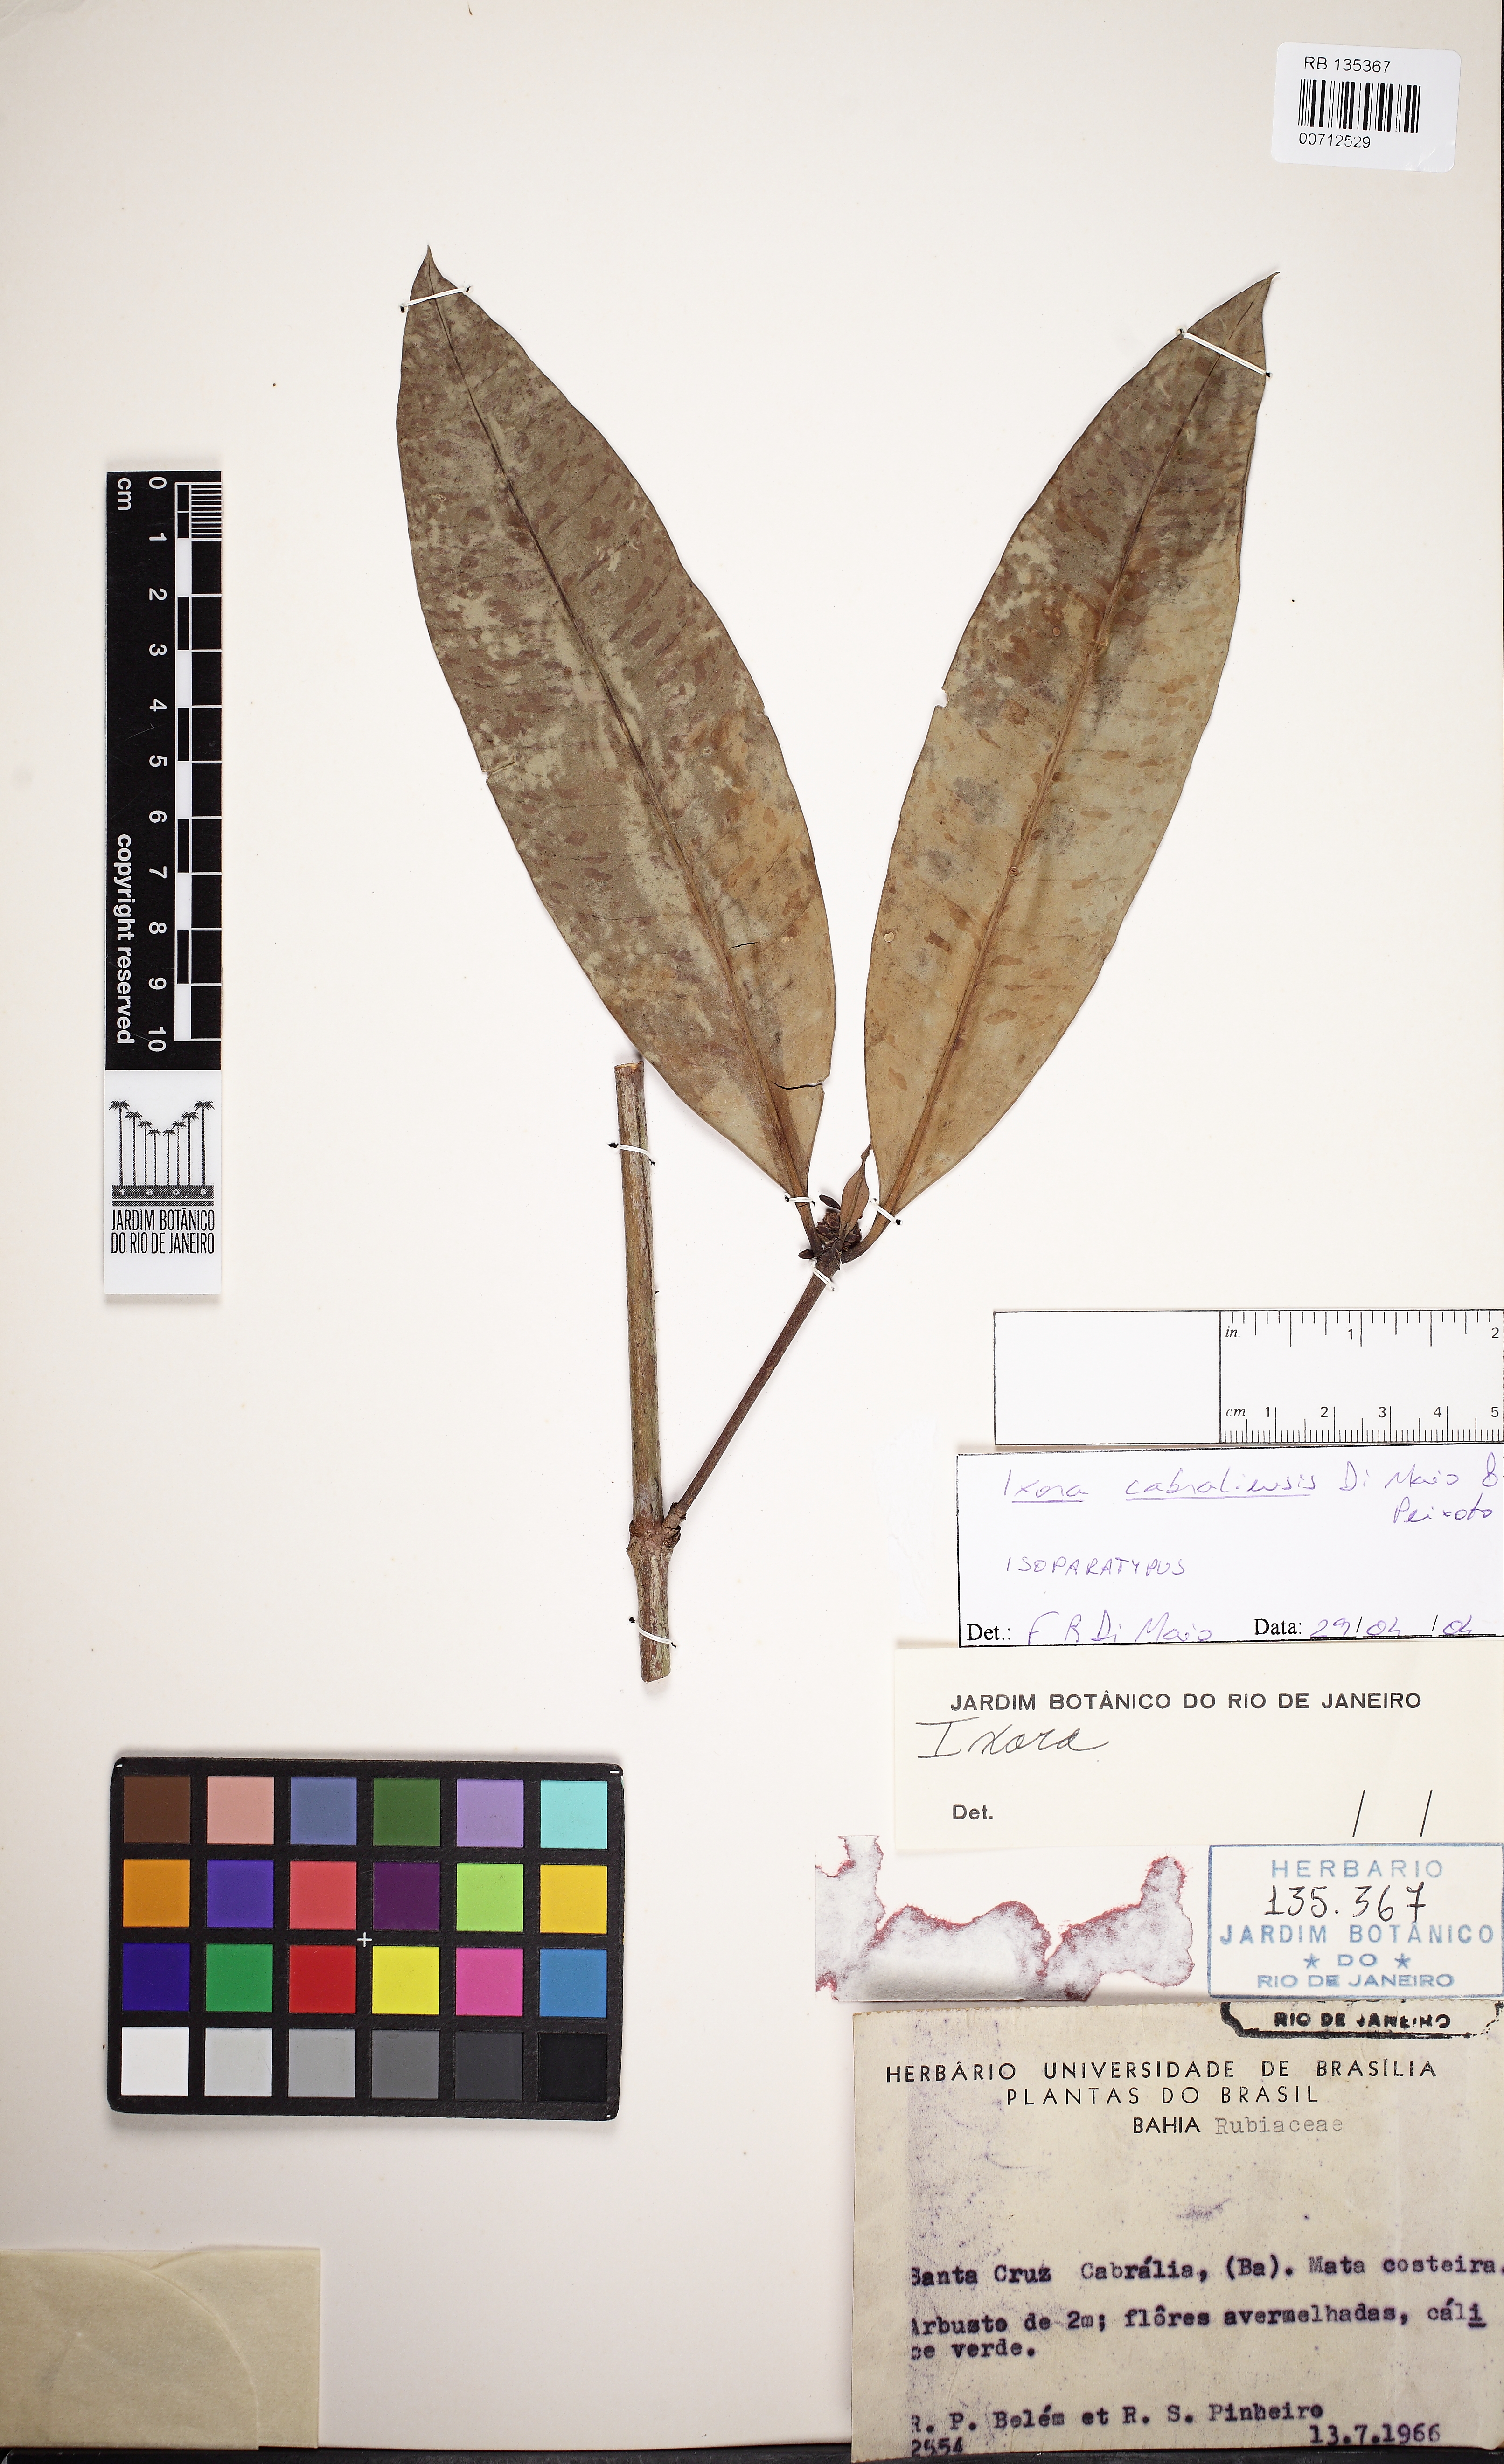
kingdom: Plantae
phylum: Tracheophyta
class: Magnoliopsida
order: Gentianales
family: Rubiaceae
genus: Ixora
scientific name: Ixora
